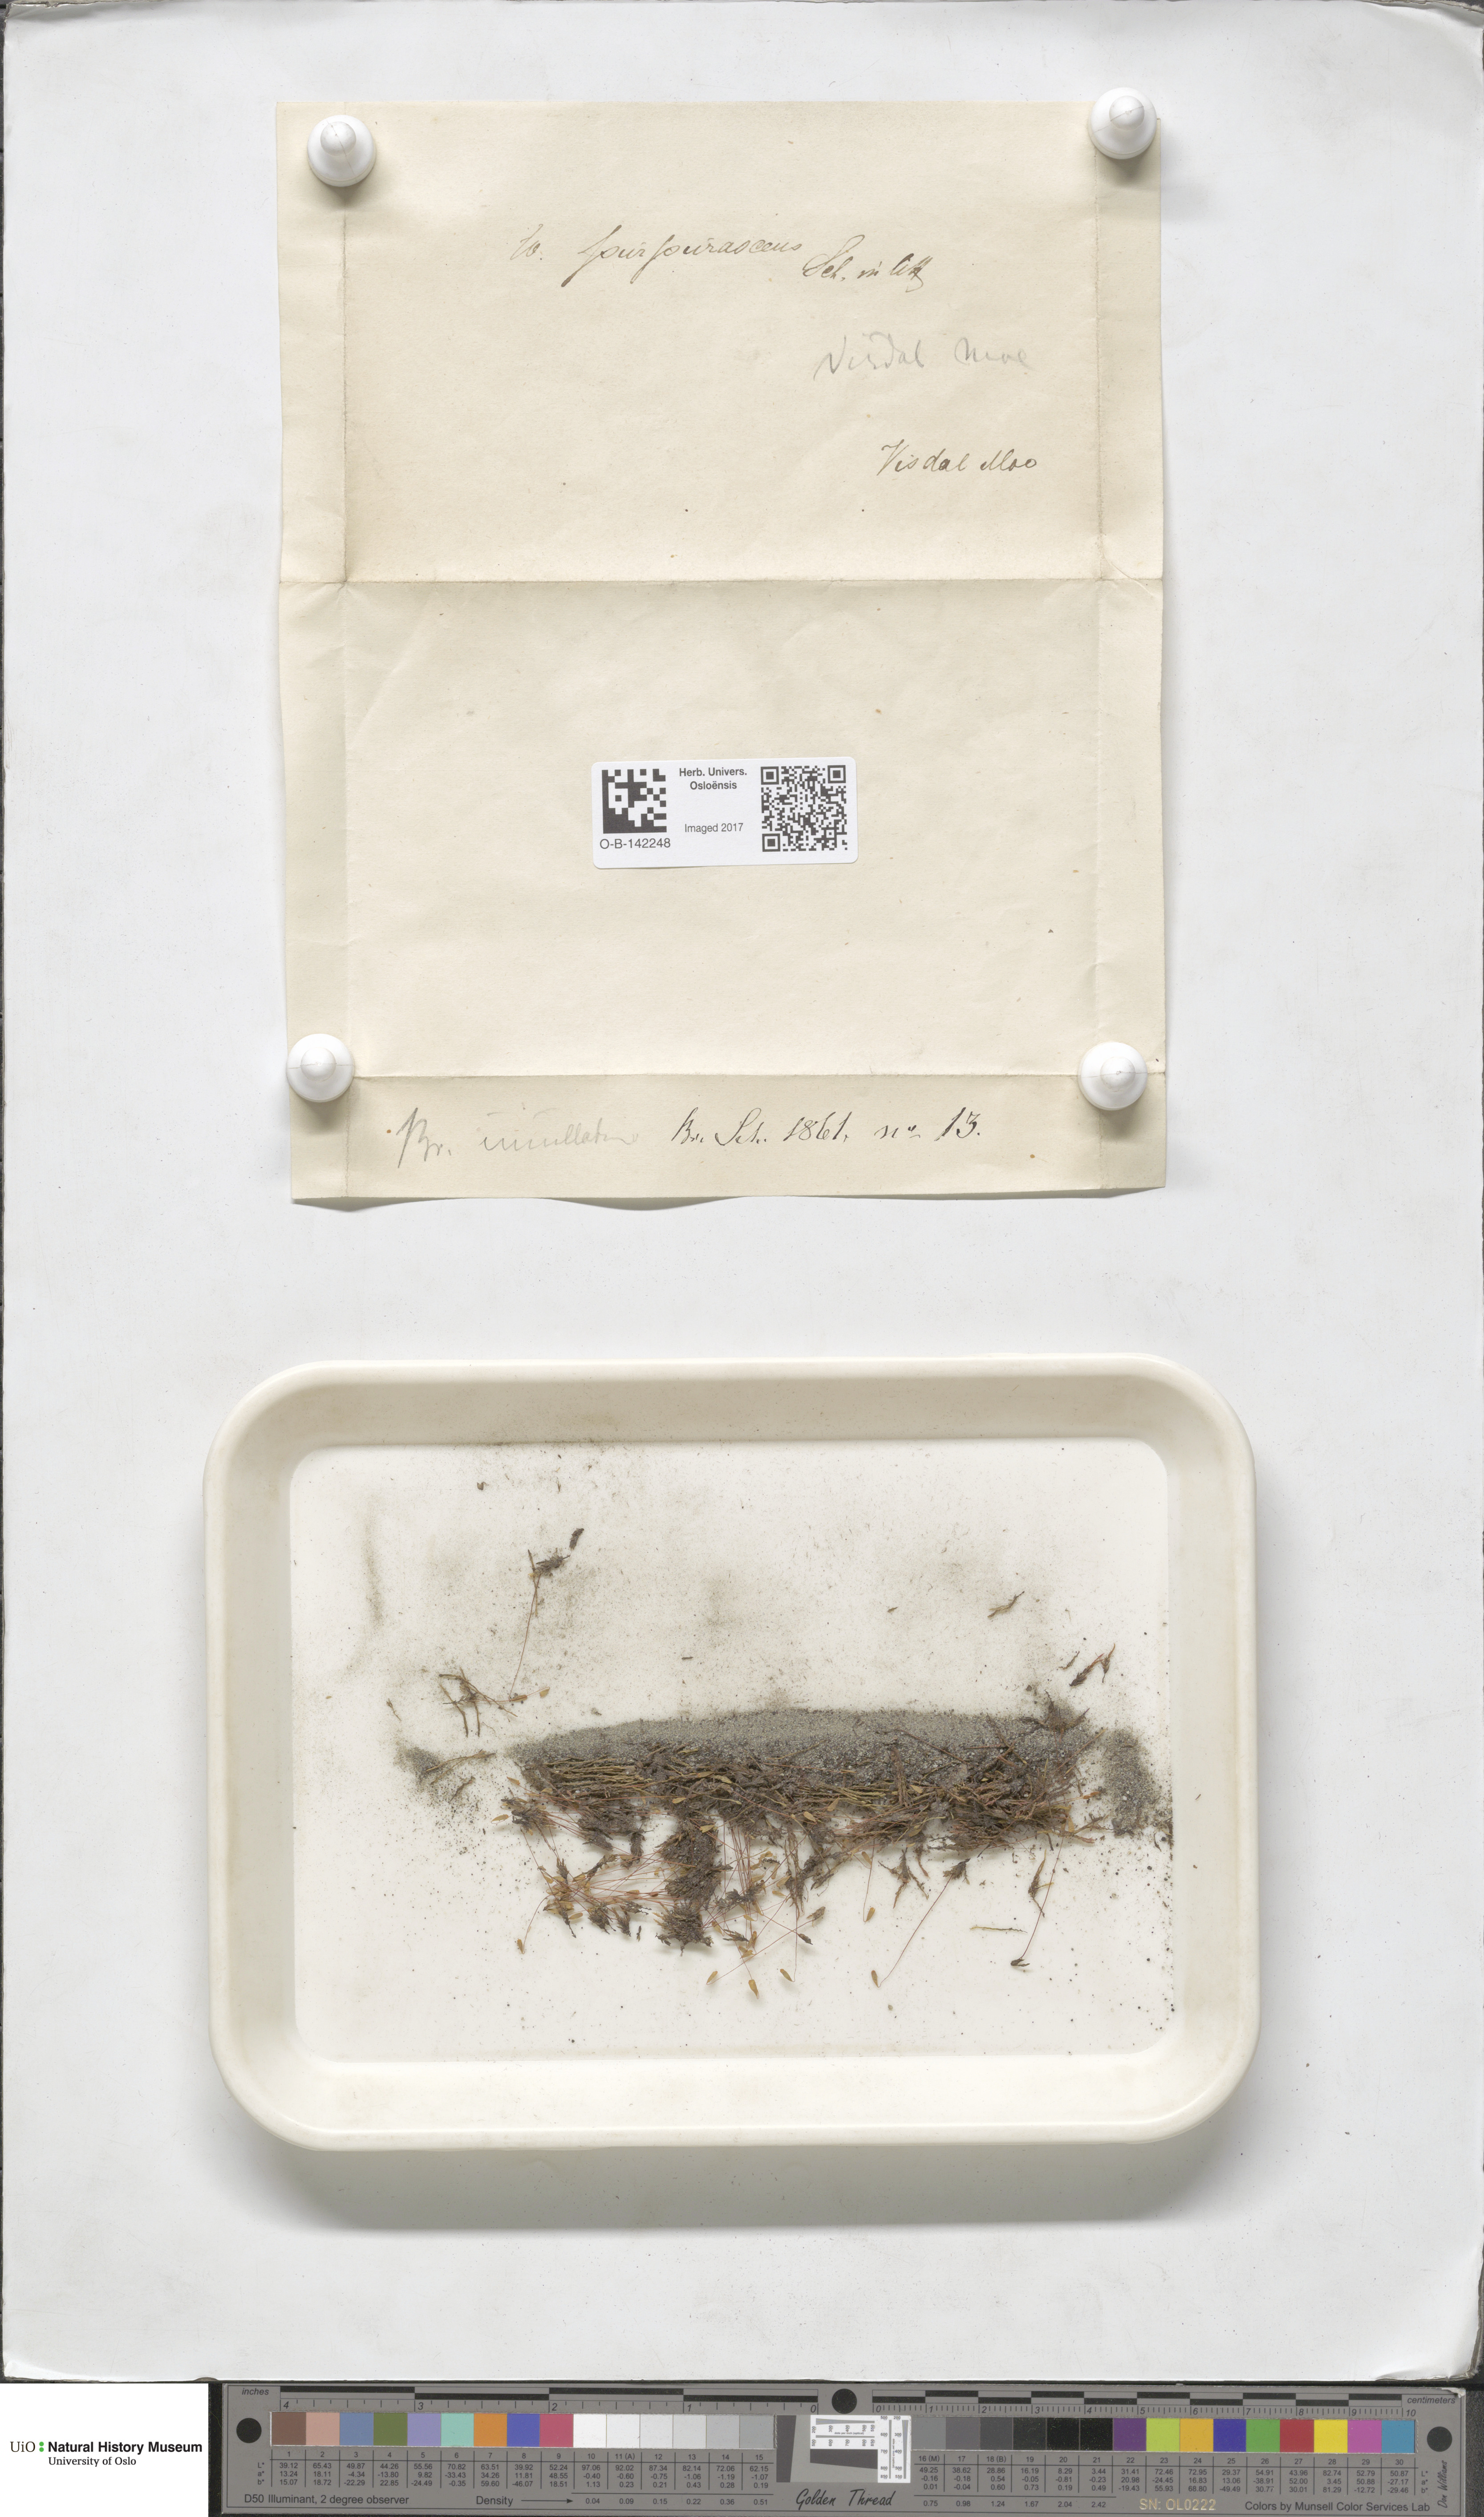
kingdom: Plantae
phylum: Bryophyta
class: Bryopsida
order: Bryales
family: Bryaceae
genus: Ptychostomum
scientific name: Ptychostomum arcticum
